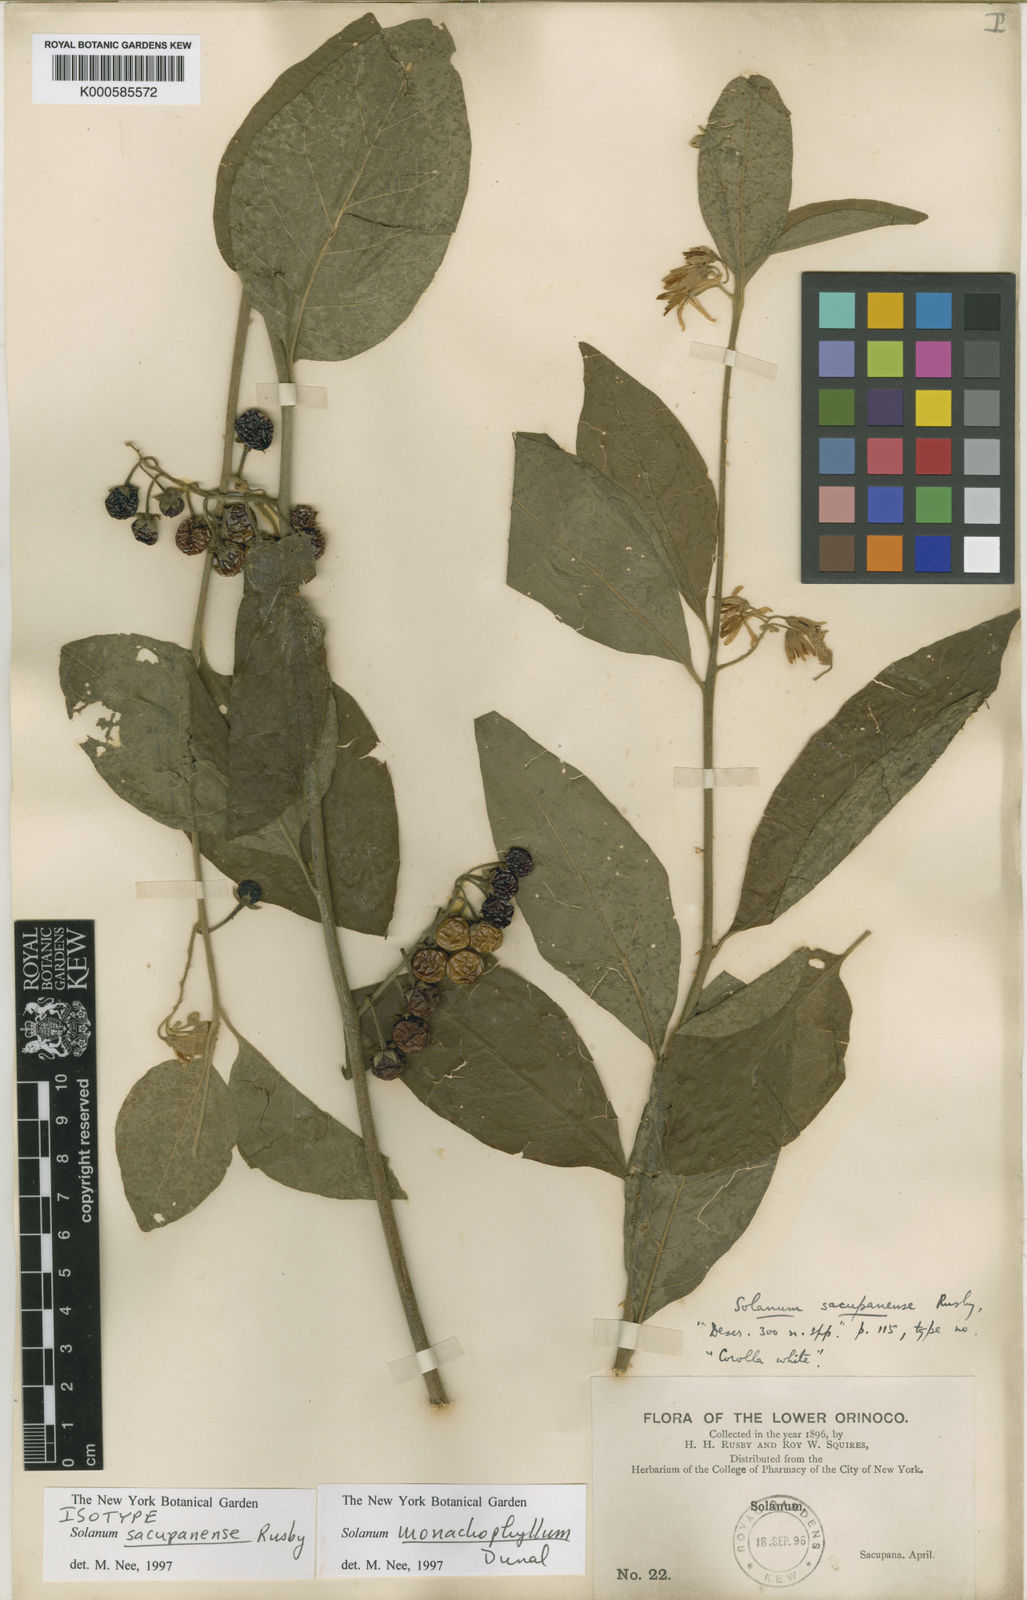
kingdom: Plantae
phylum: Tracheophyta
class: Magnoliopsida
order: Solanales
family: Solanaceae
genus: Solanum
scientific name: Solanum monachophyllum
